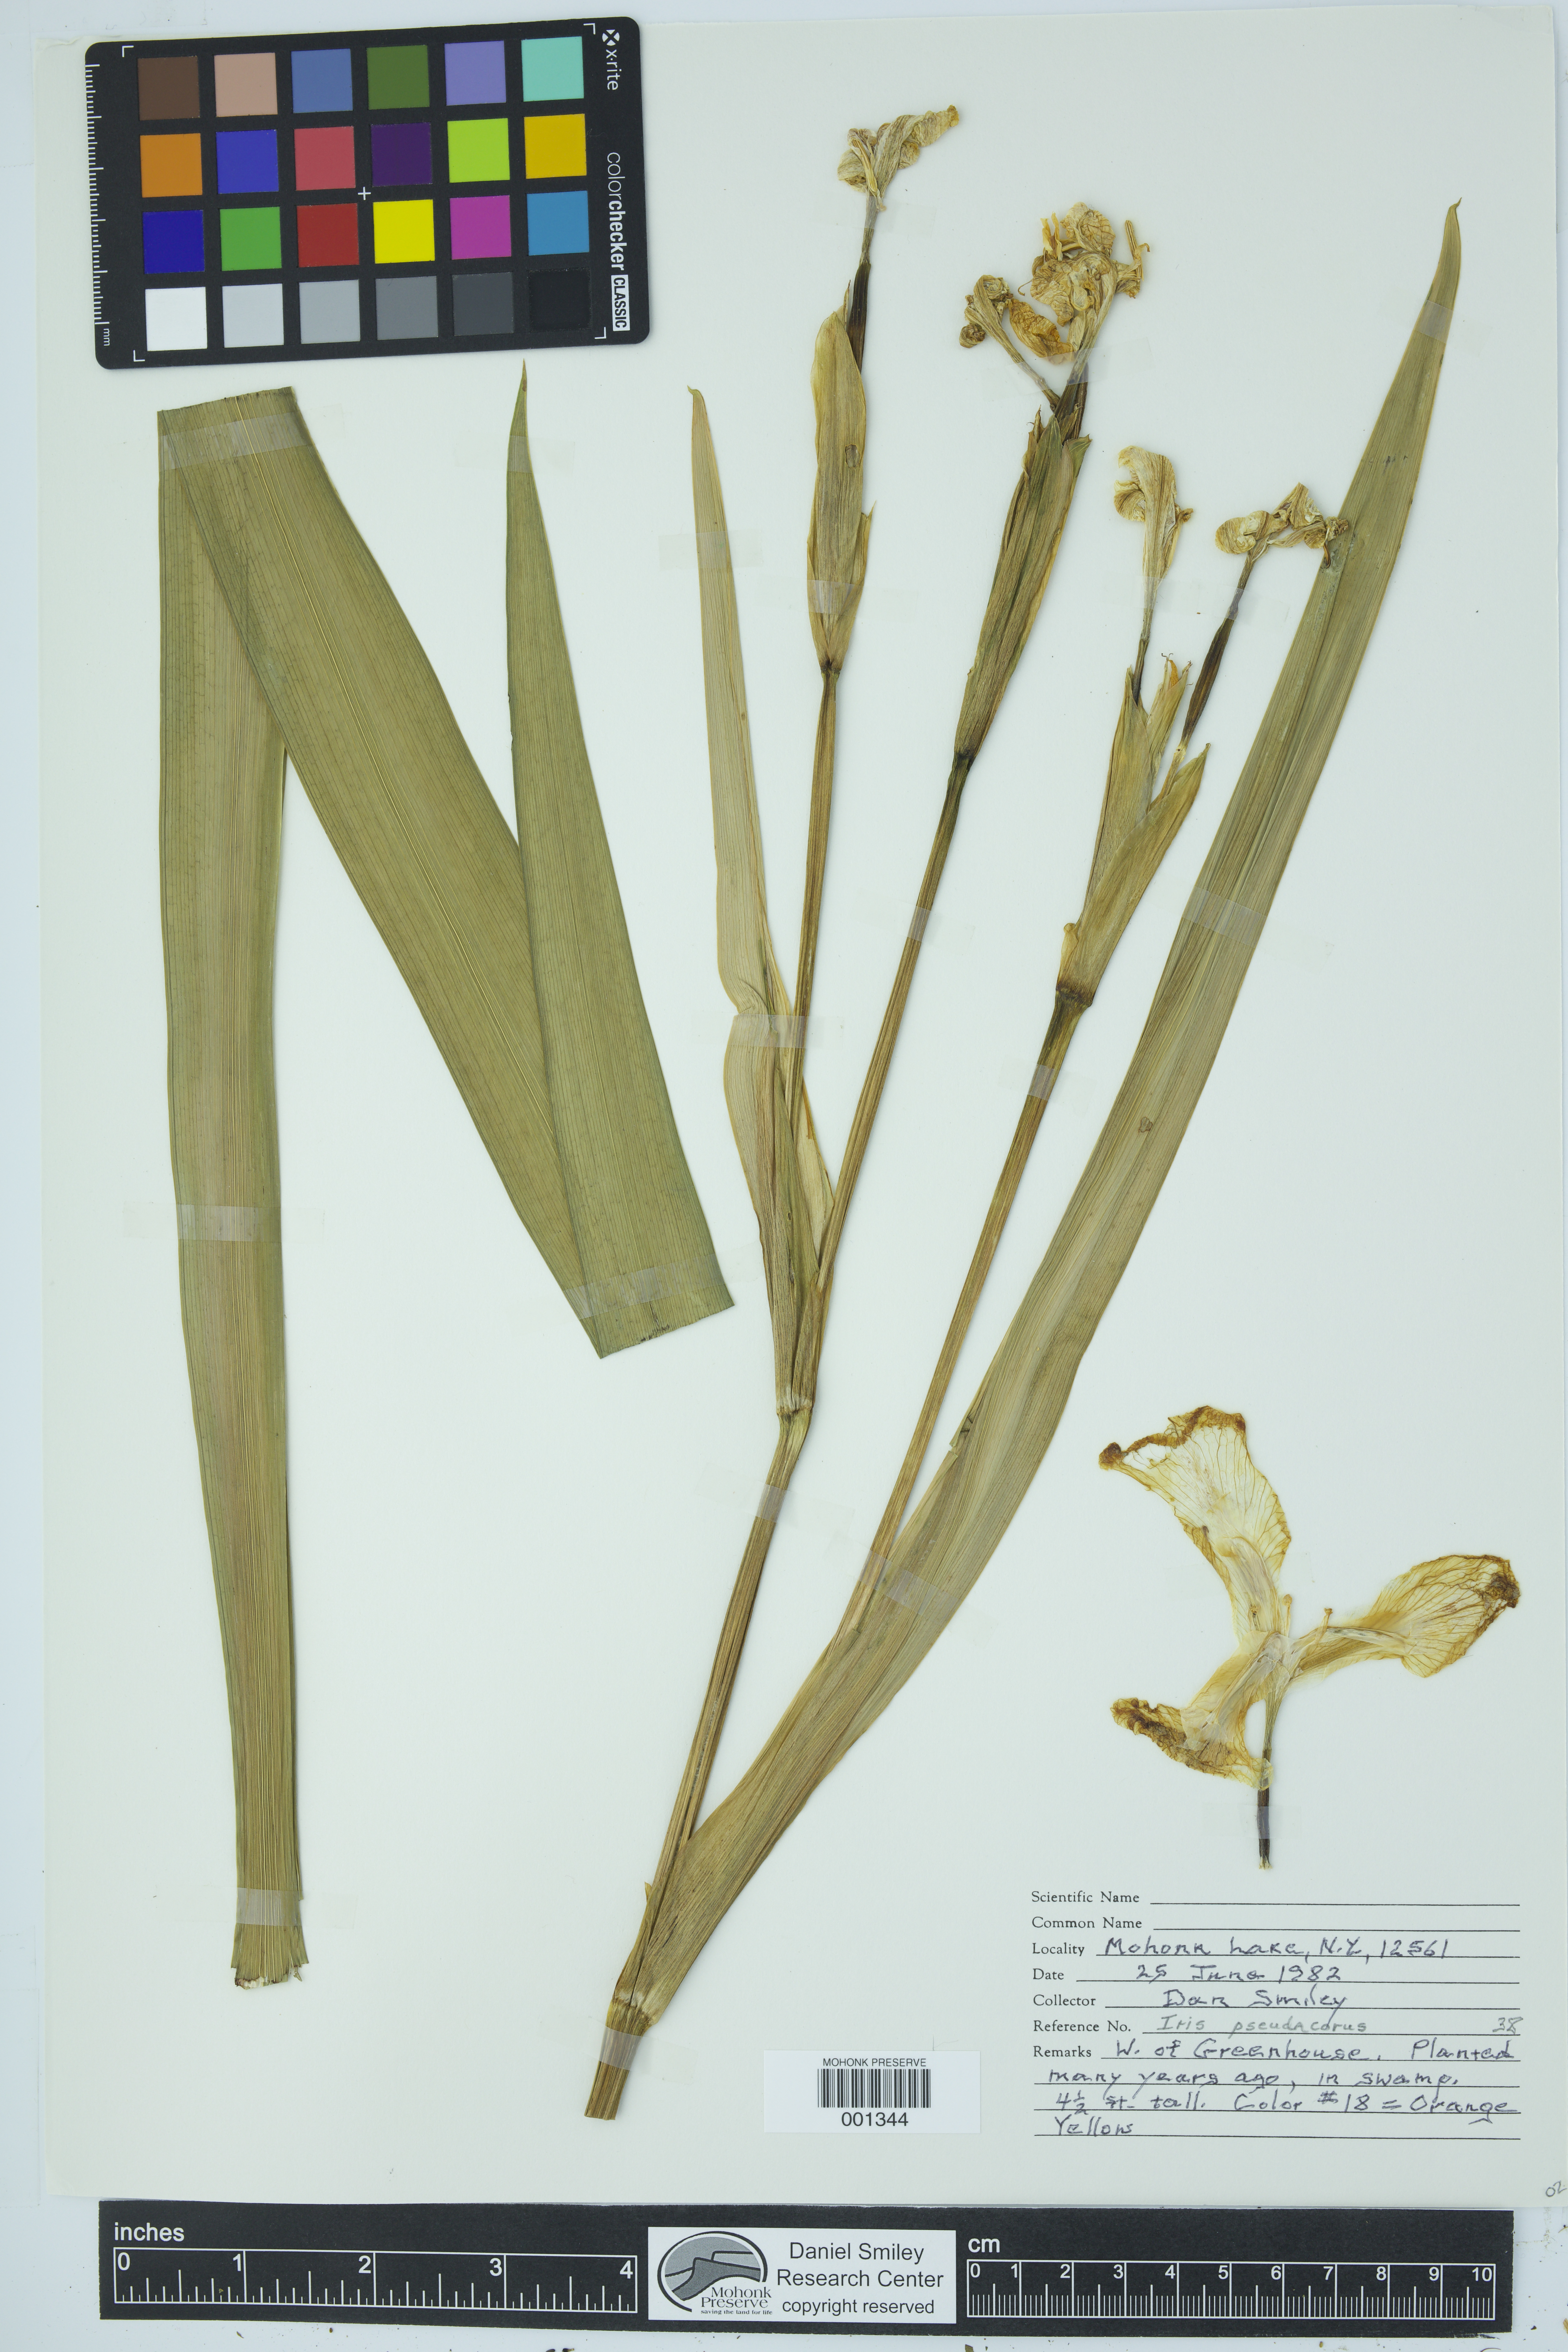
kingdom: Plantae
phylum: Tracheophyta
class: Liliopsida
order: Asparagales
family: Iridaceae
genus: Iris
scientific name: Iris pseudacorus
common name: Yellow flag
